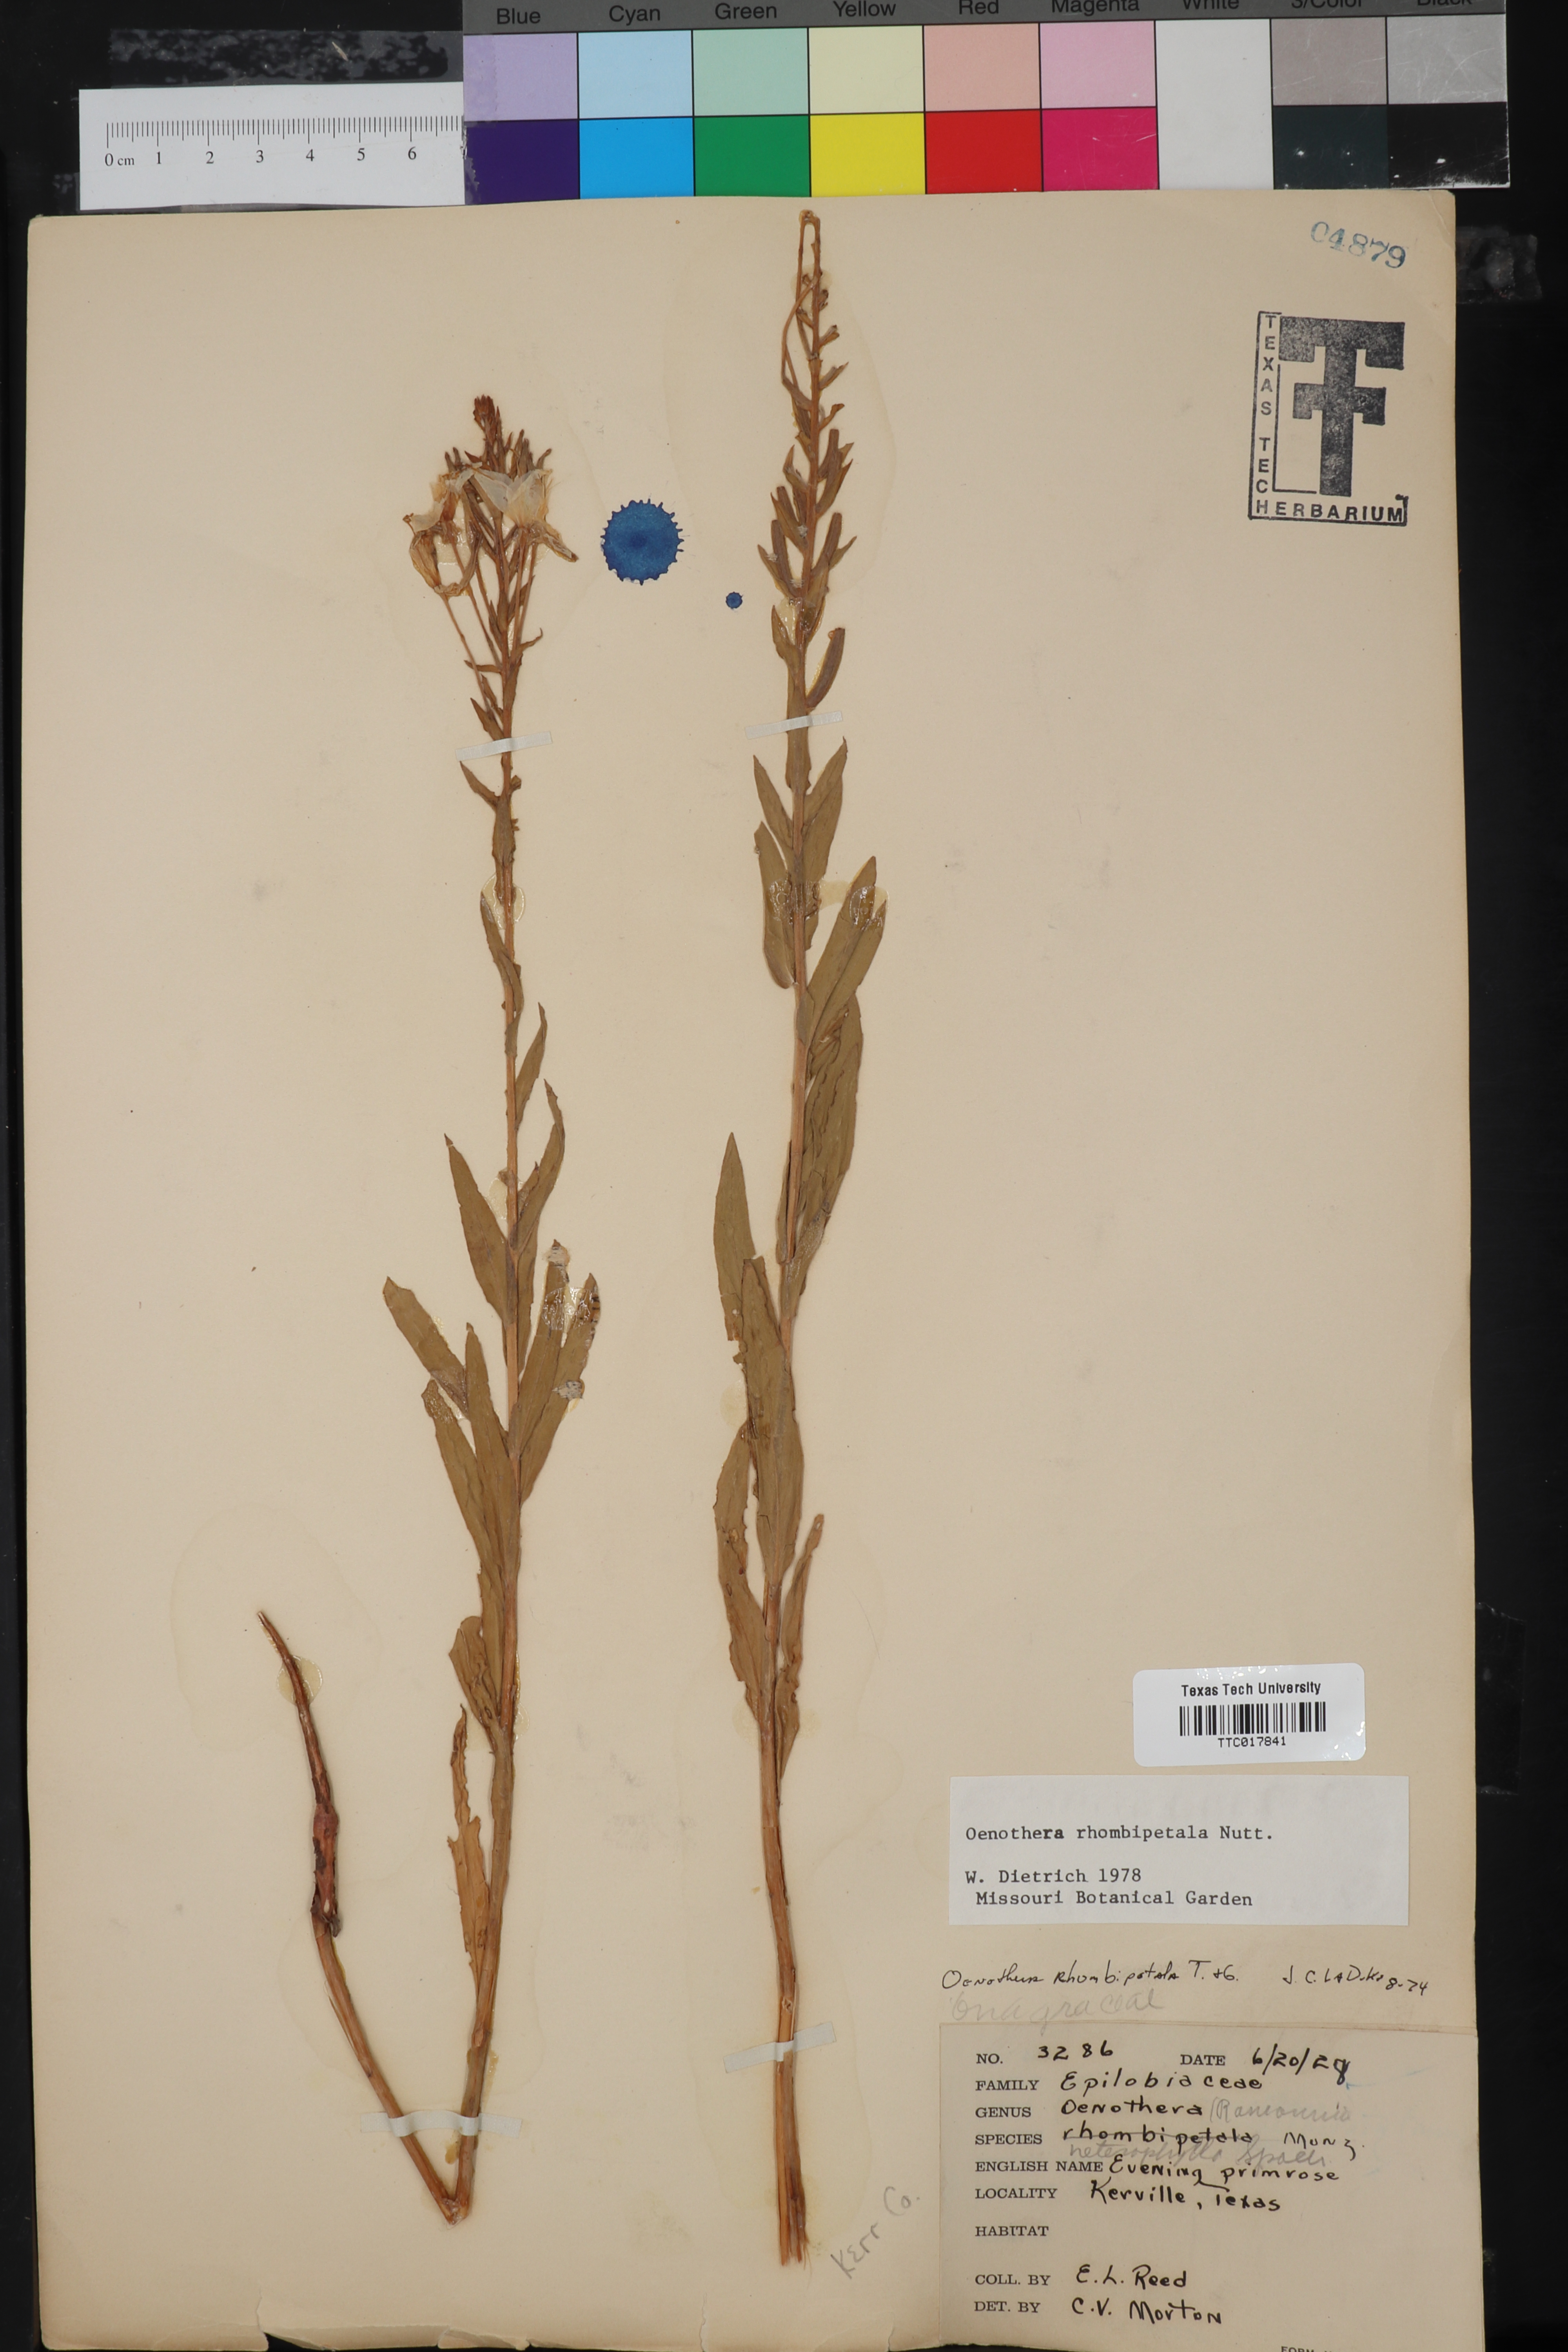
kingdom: Plantae
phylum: Tracheophyta
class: Magnoliopsida
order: Myrtales
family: Onagraceae
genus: Oenothera
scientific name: Oenothera rhombipetala
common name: Four-points evening-primrose
